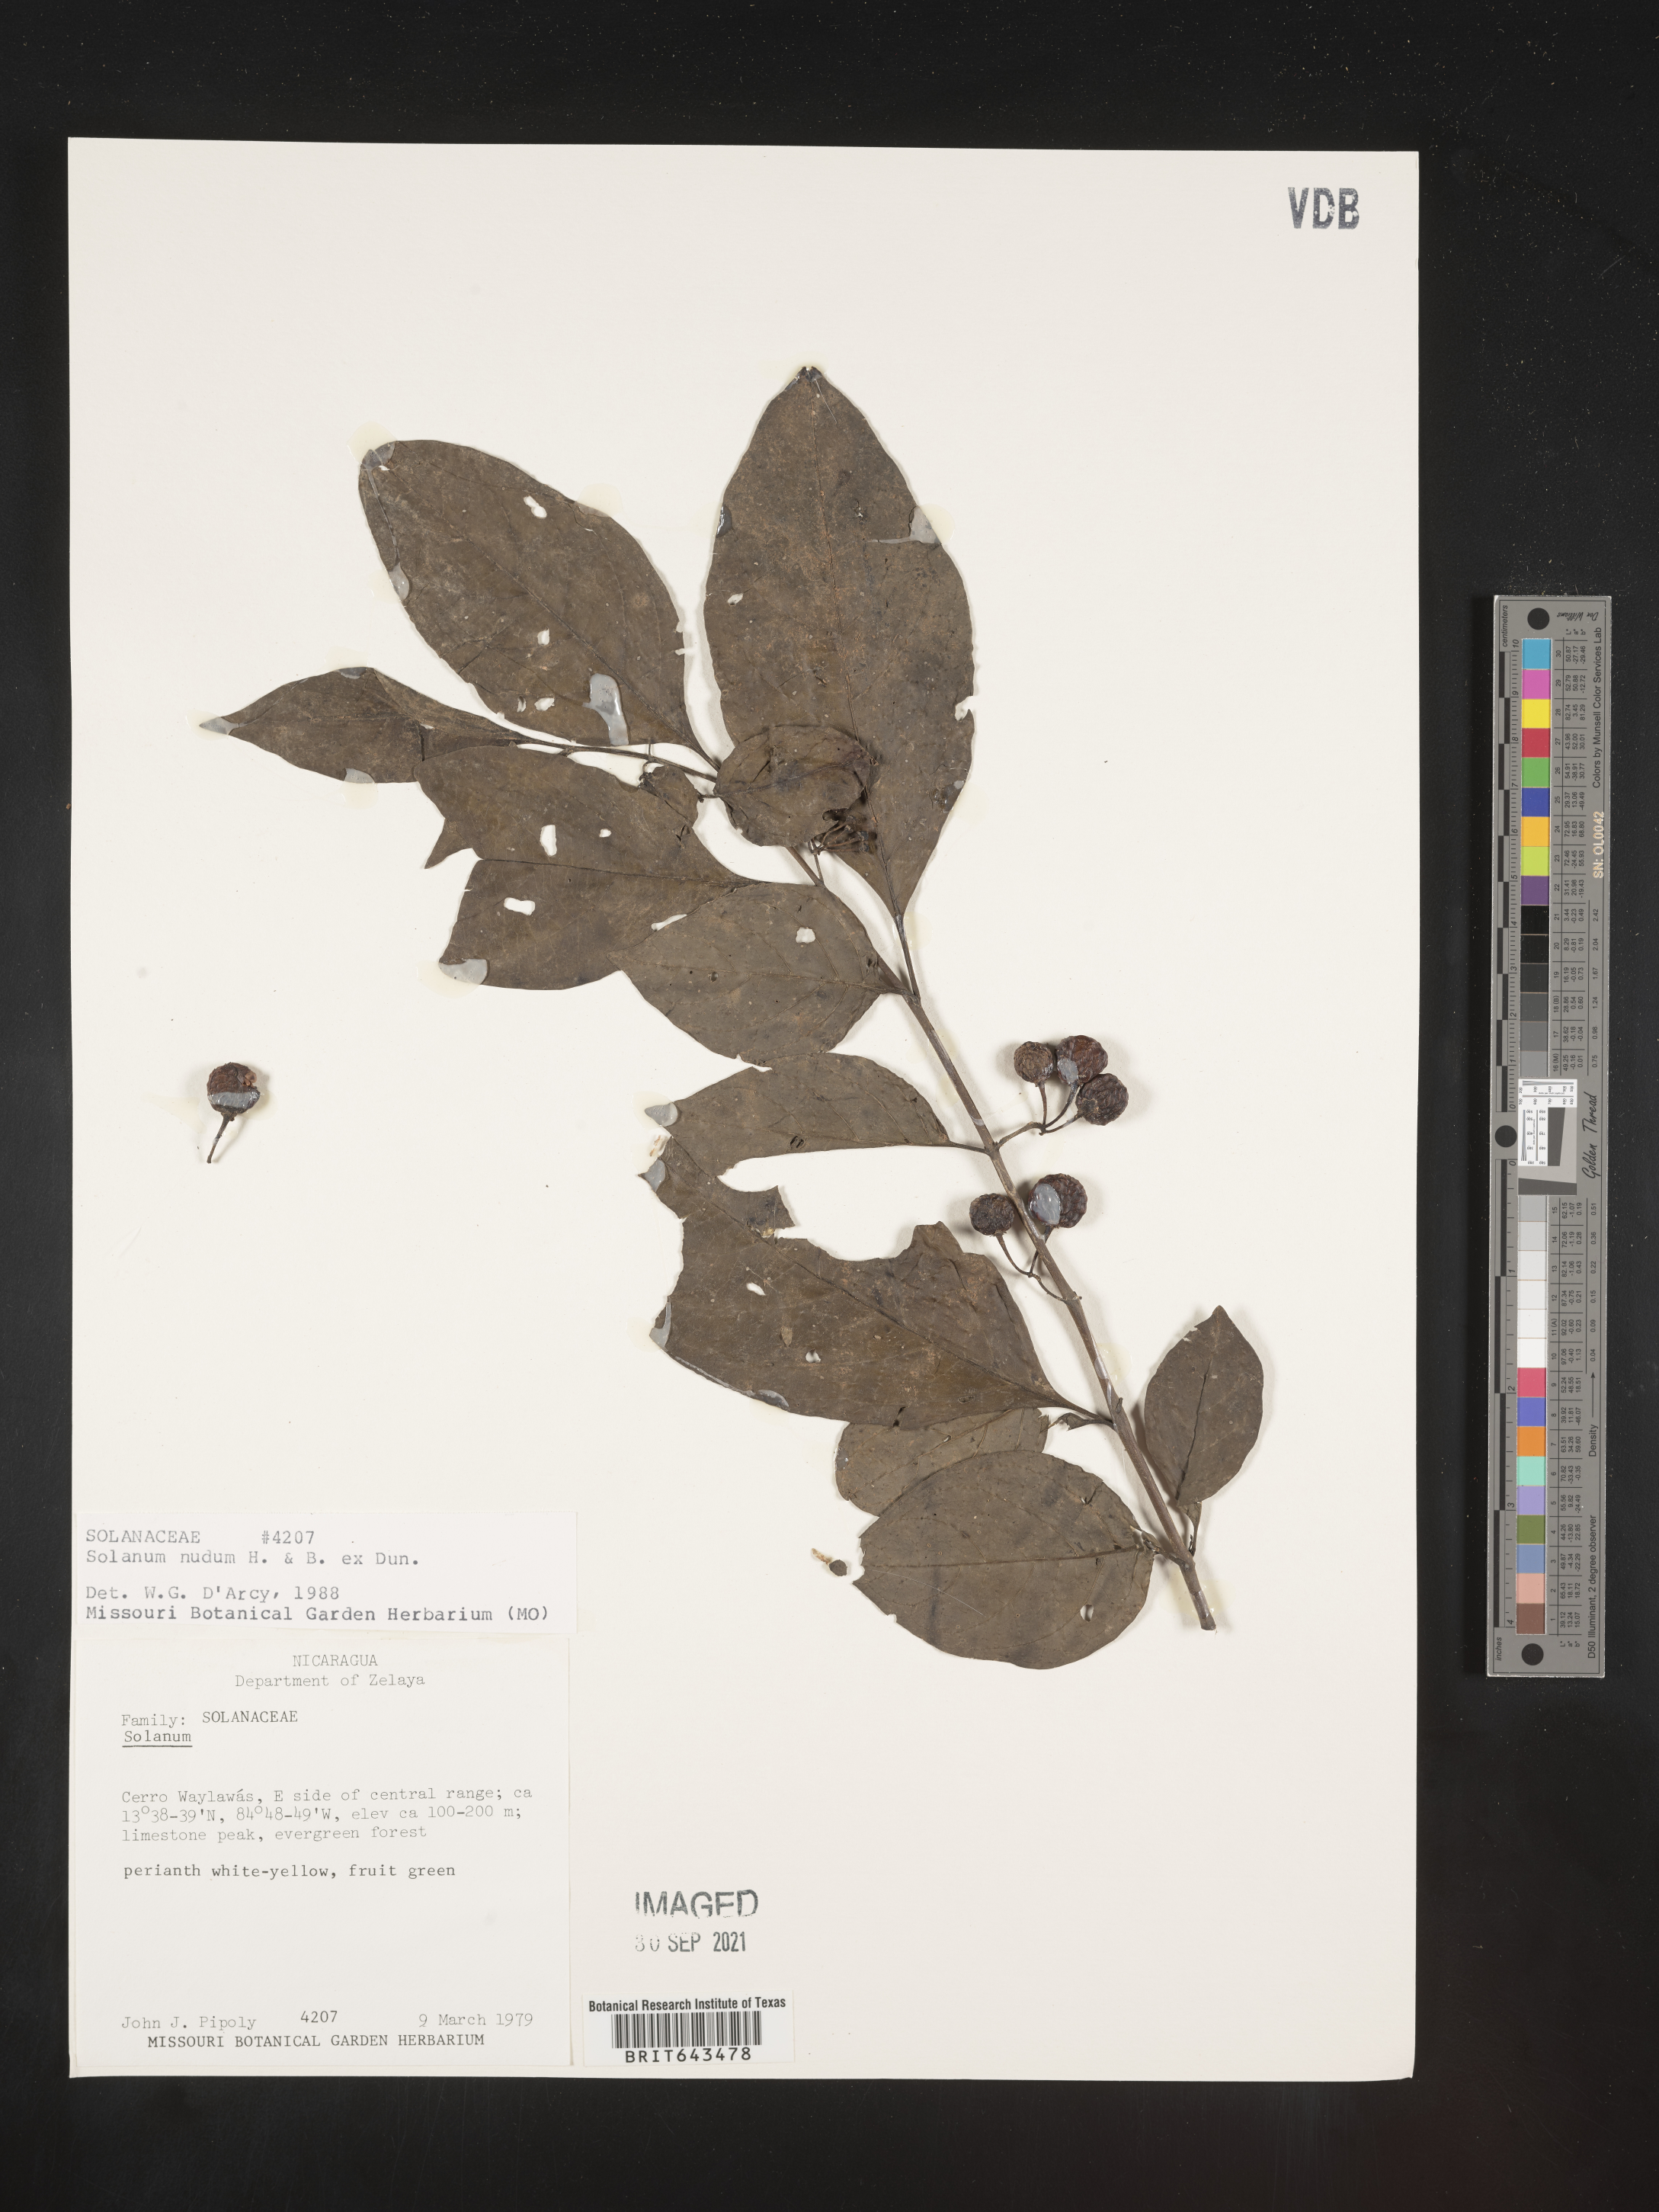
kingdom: Plantae
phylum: Tracheophyta
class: Magnoliopsida
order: Solanales
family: Solanaceae
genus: Solanum
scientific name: Solanum
